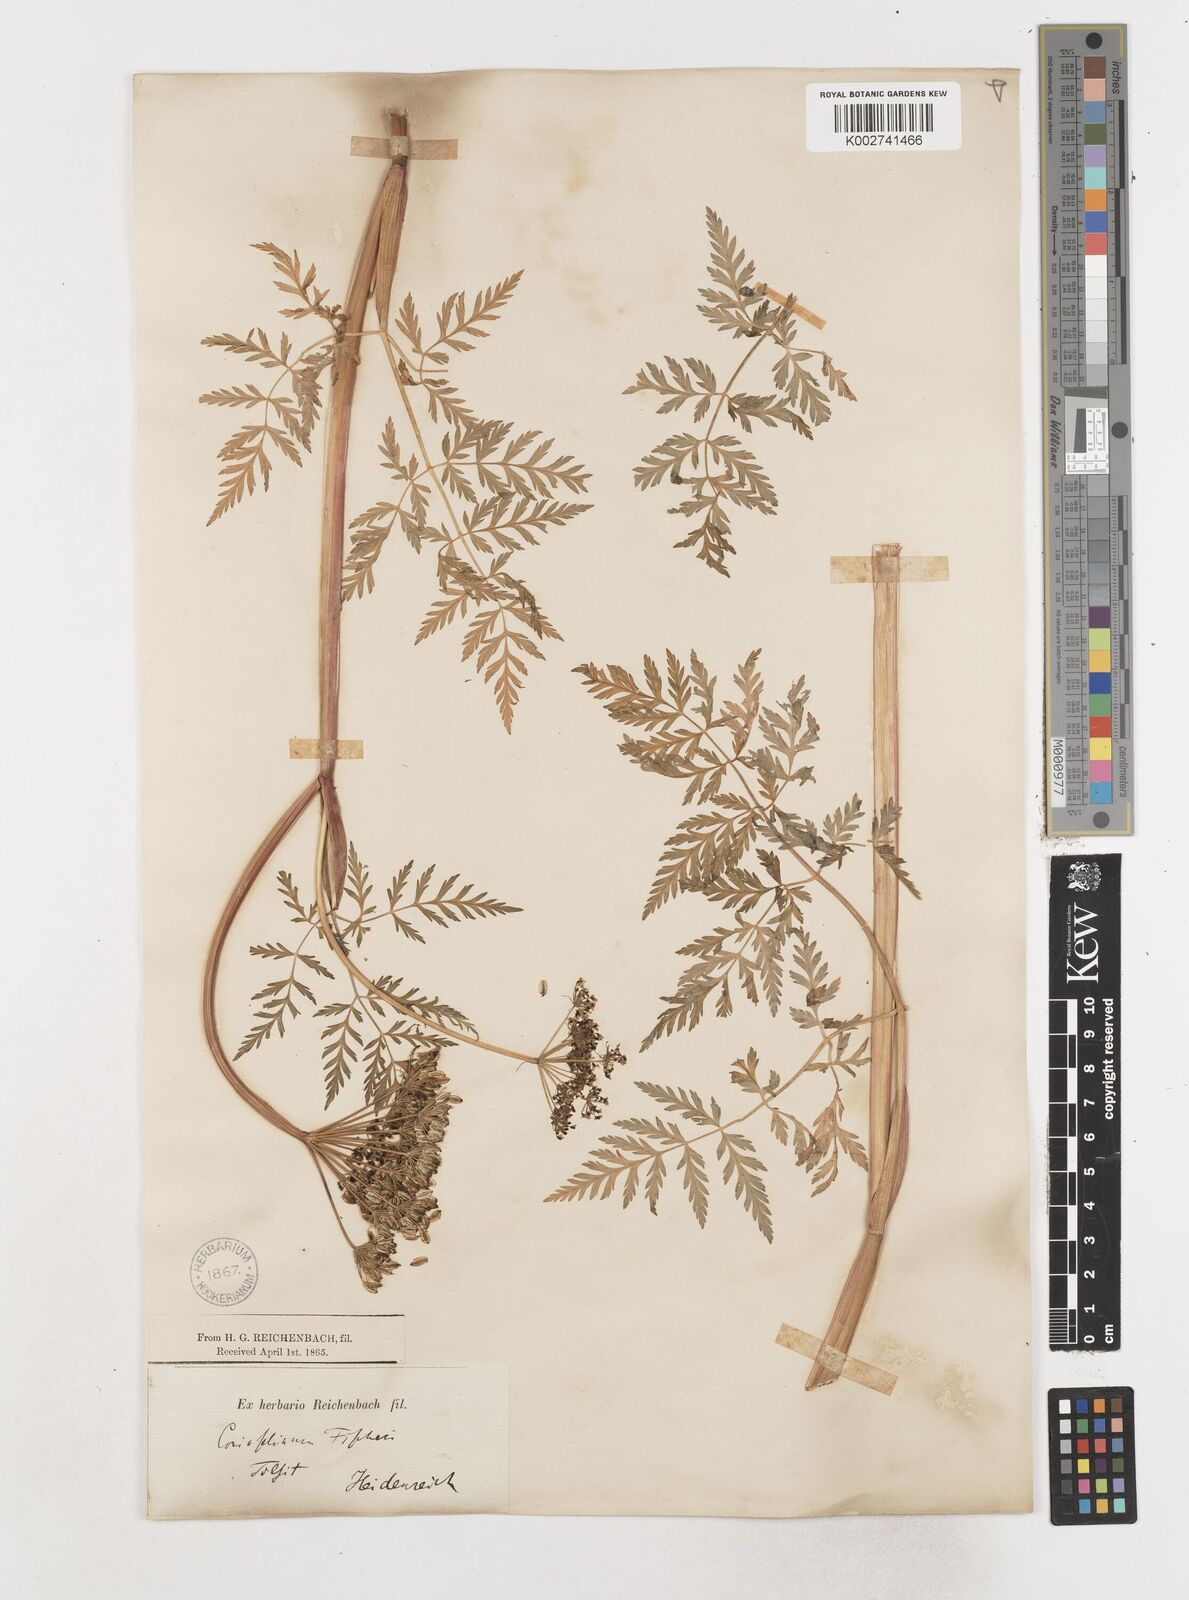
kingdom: Plantae
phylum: Tracheophyta
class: Magnoliopsida
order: Apiales
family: Apiaceae
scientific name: Apiaceae
